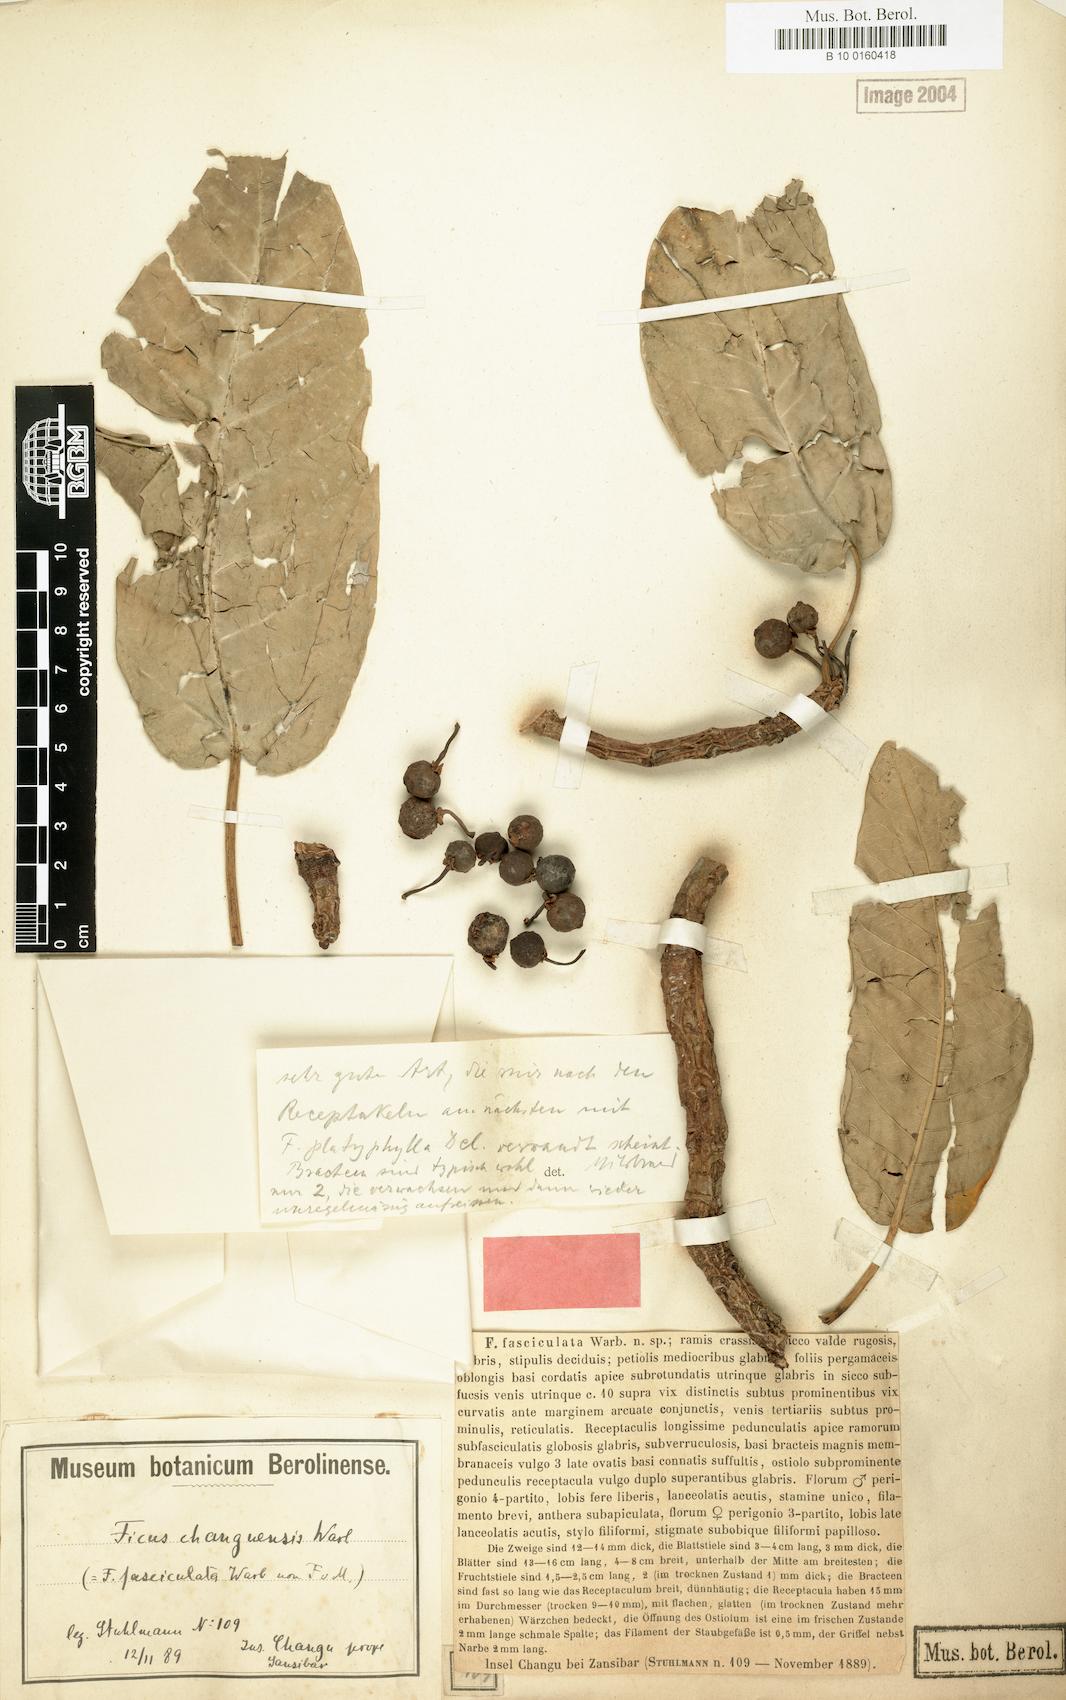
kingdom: Plantae
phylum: Tracheophyta
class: Magnoliopsida
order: Rosales
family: Moraceae
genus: Ficus
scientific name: Ficus bussei
